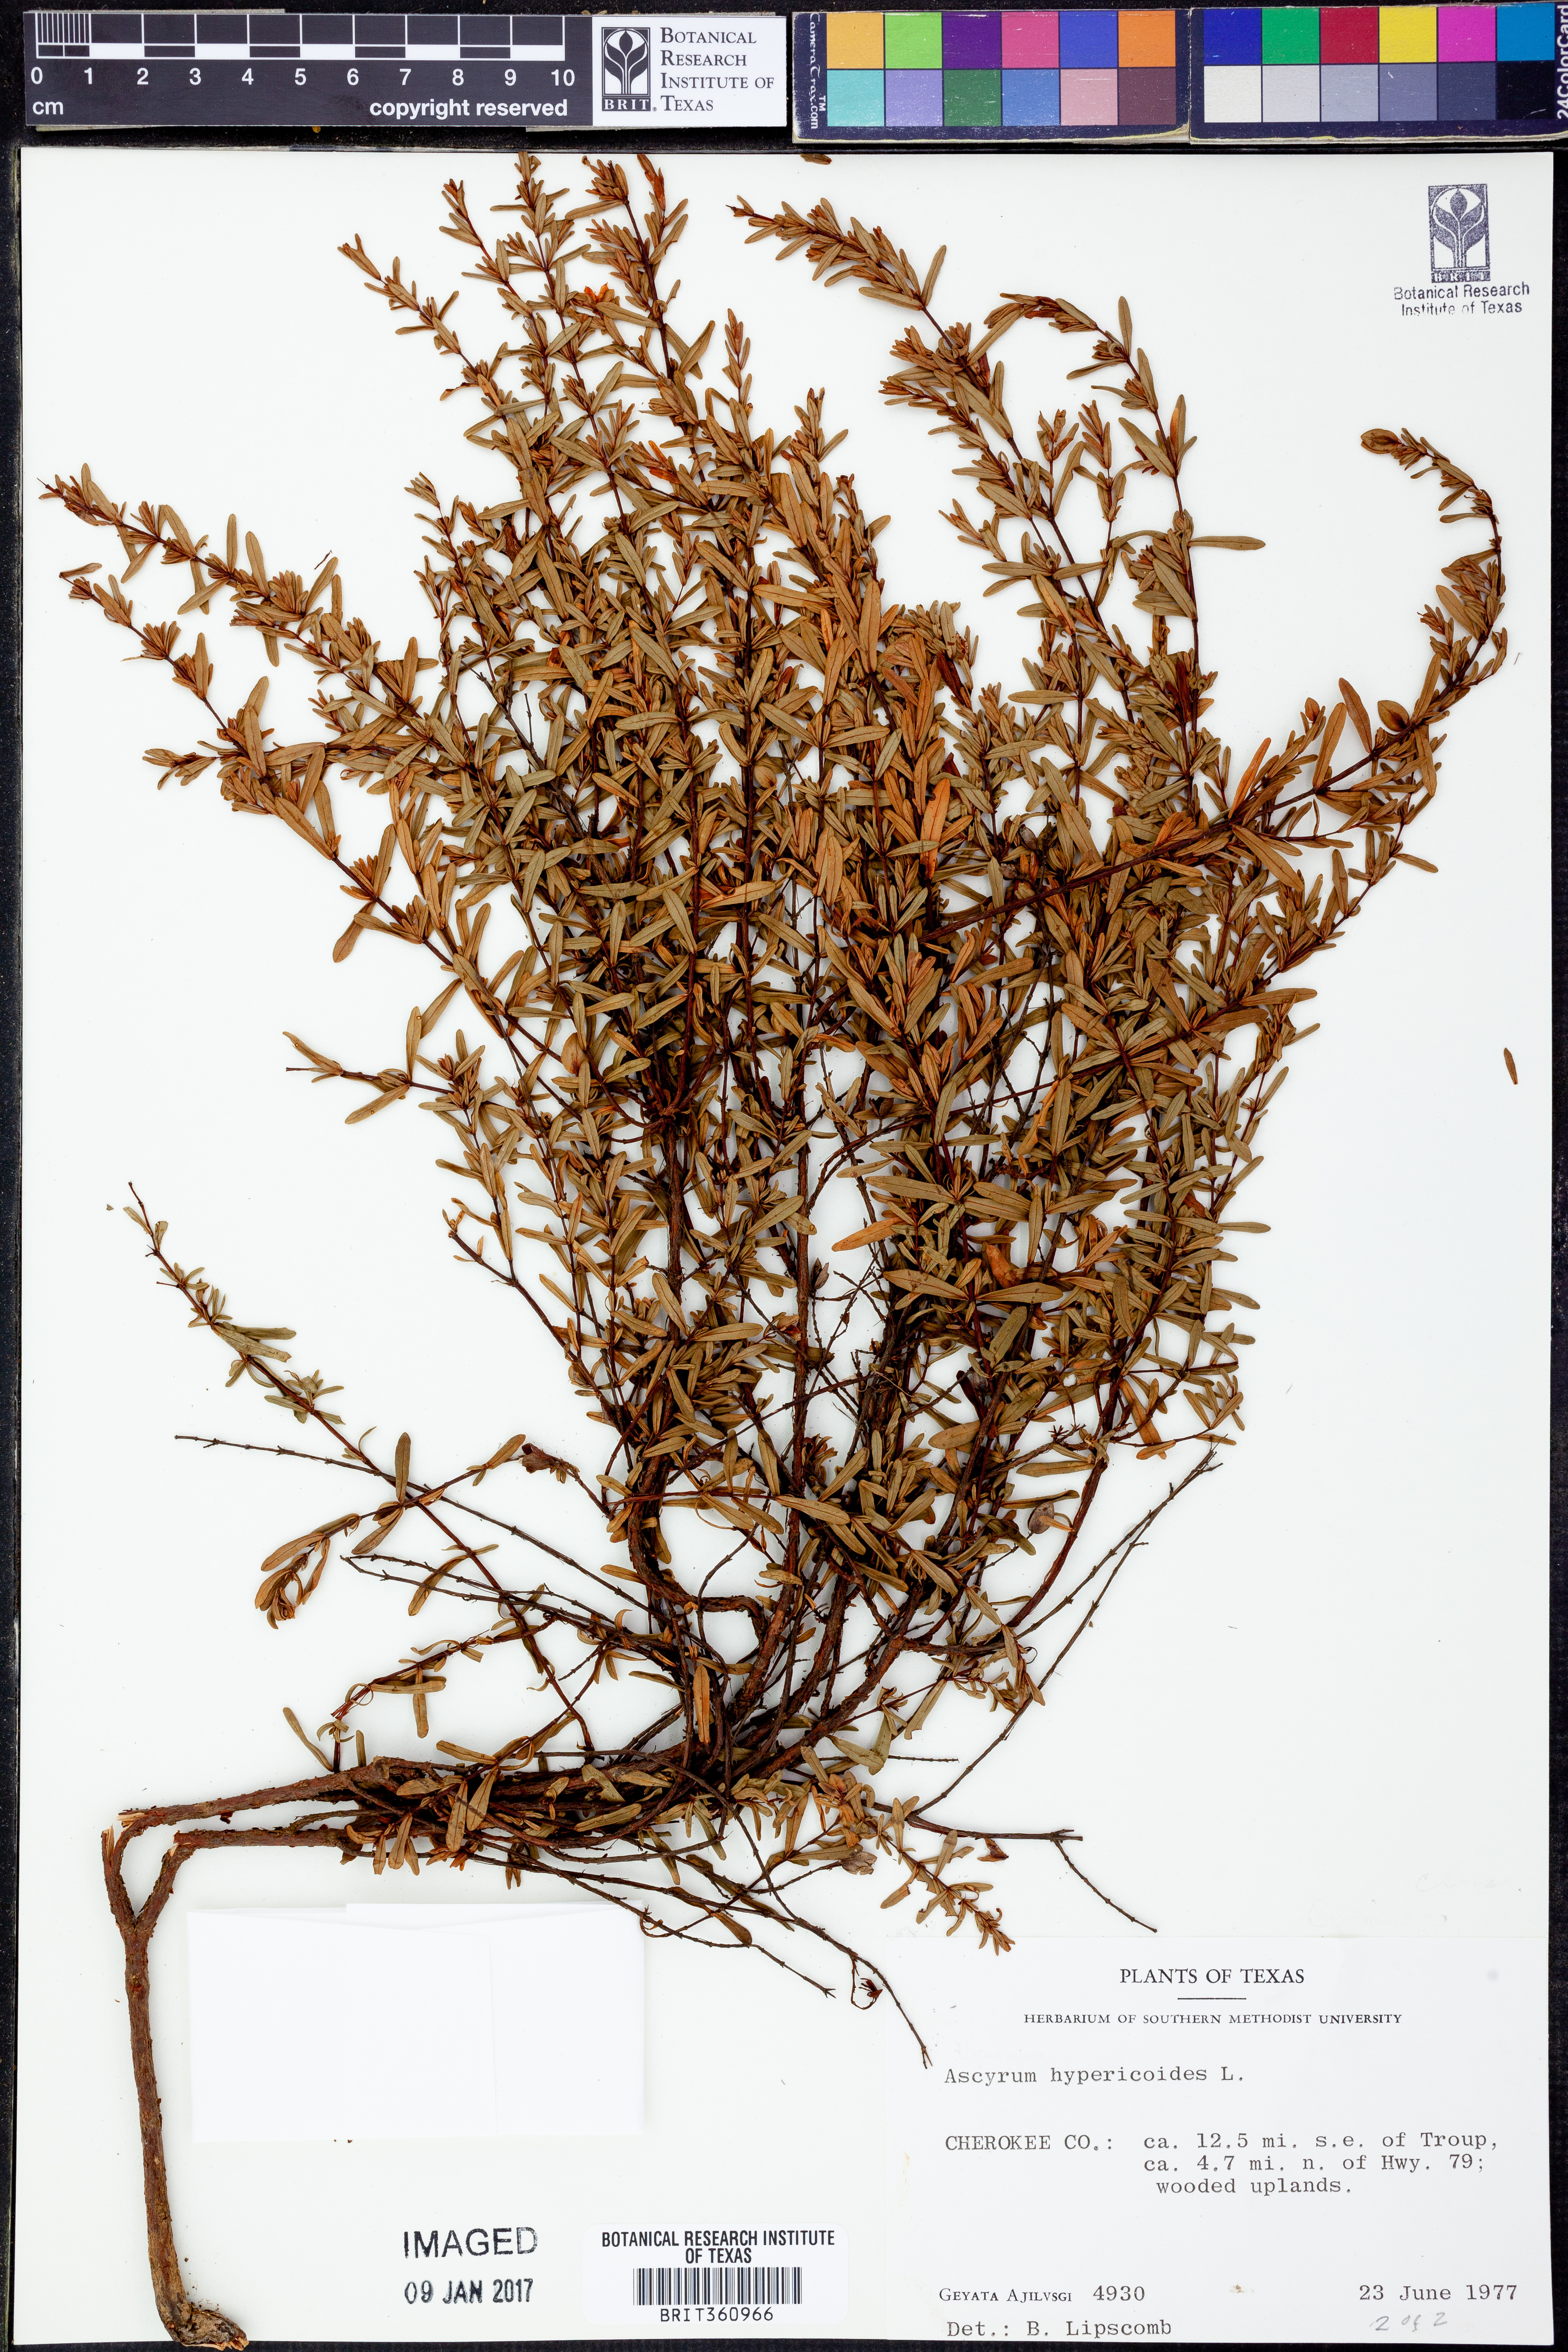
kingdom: Plantae
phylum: Tracheophyta
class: Magnoliopsida
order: Malpighiales
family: Hypericaceae
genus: Hypericum
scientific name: Hypericum hypericoides
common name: St. andrew's cross
